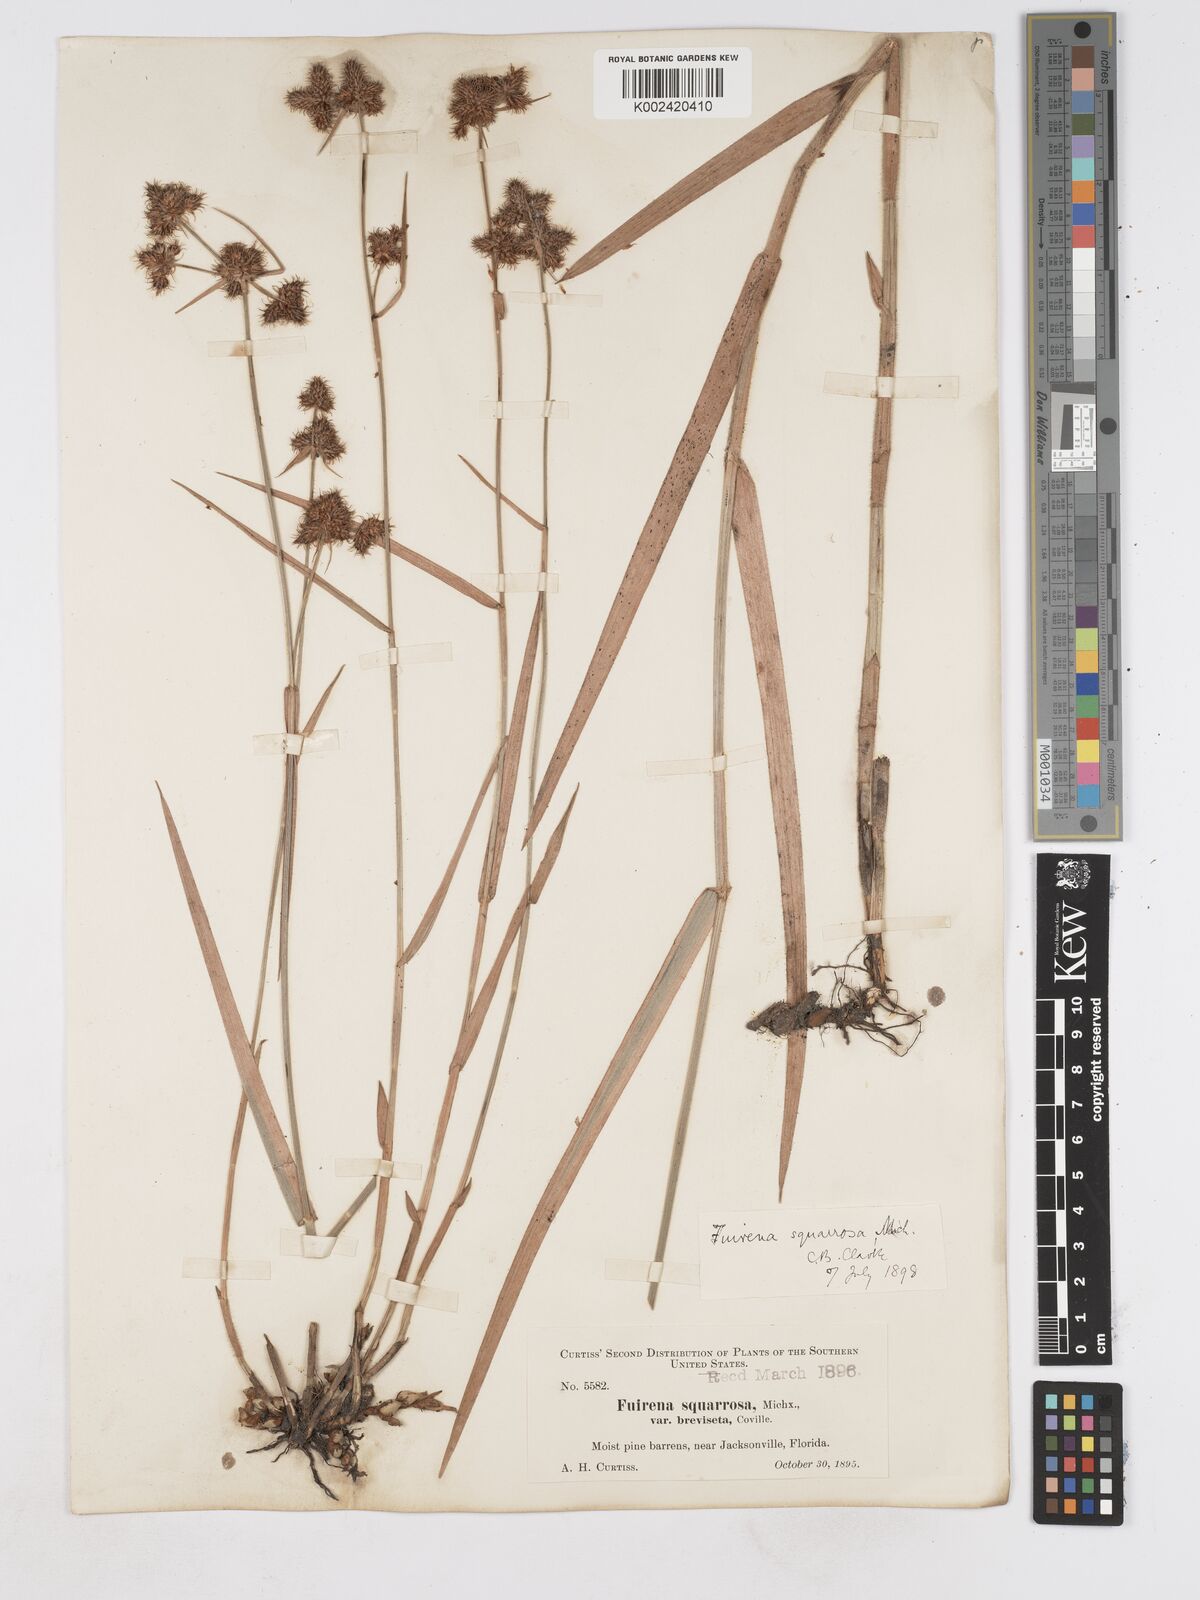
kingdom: Plantae
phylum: Tracheophyta
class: Liliopsida
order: Poales
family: Cyperaceae
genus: Fuirena
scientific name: Fuirena breviseta
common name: Saltmarsh umbrella sedge
